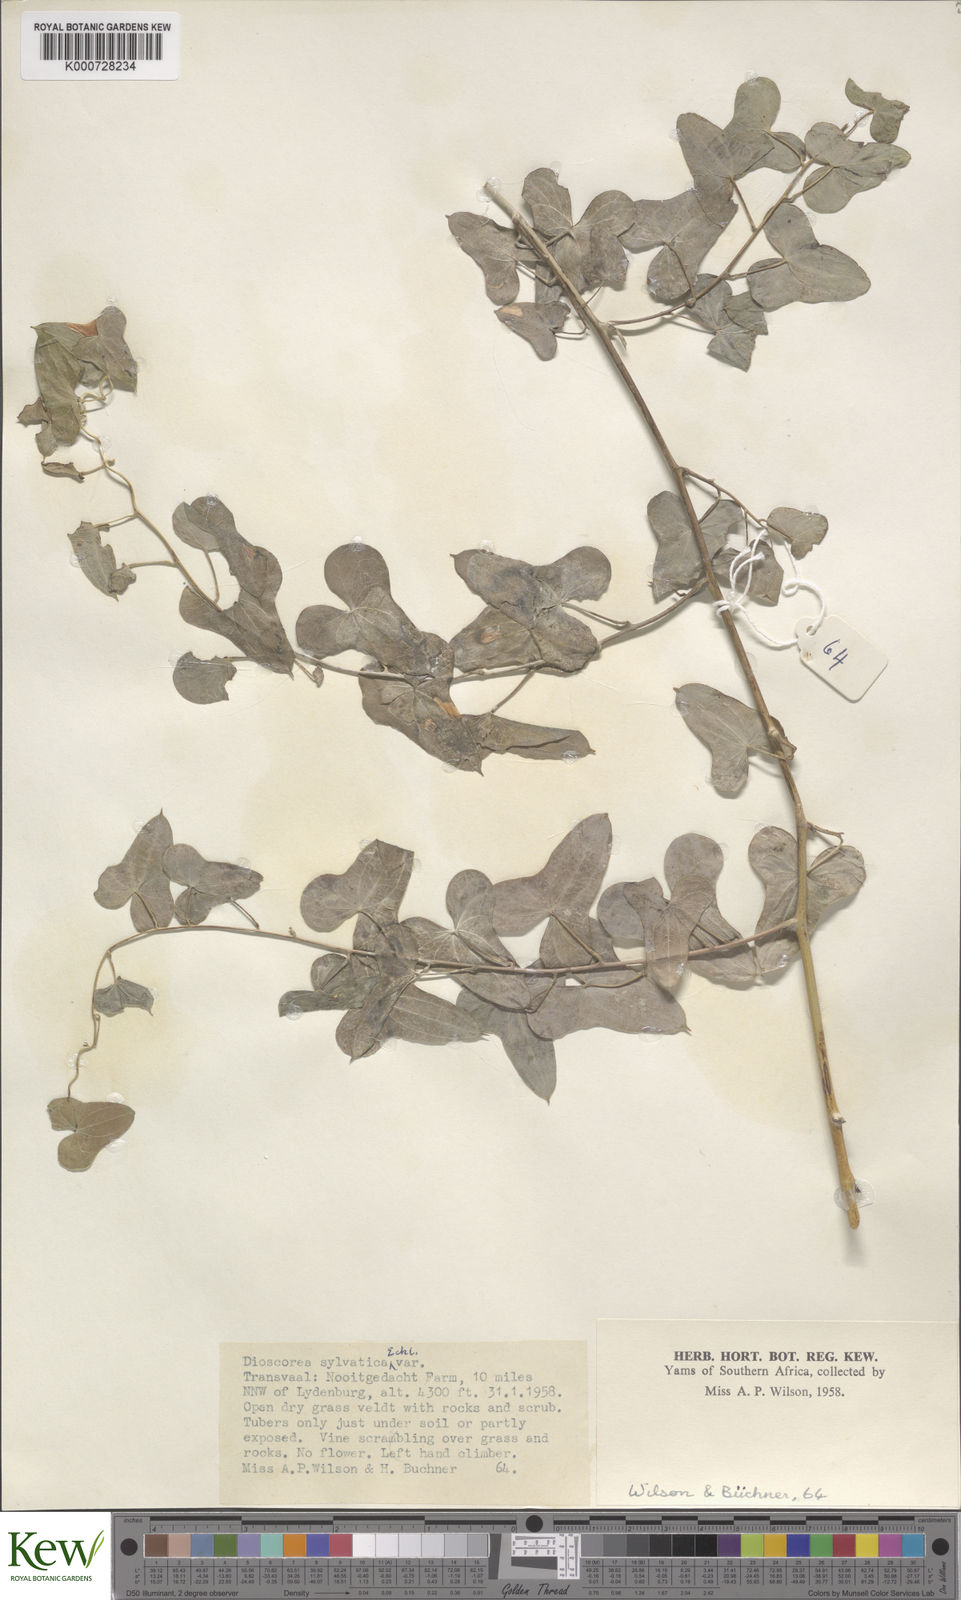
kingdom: Plantae
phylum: Tracheophyta
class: Liliopsida
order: Dioscoreales
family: Dioscoreaceae
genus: Dioscorea
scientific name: Dioscorea sylvatica
